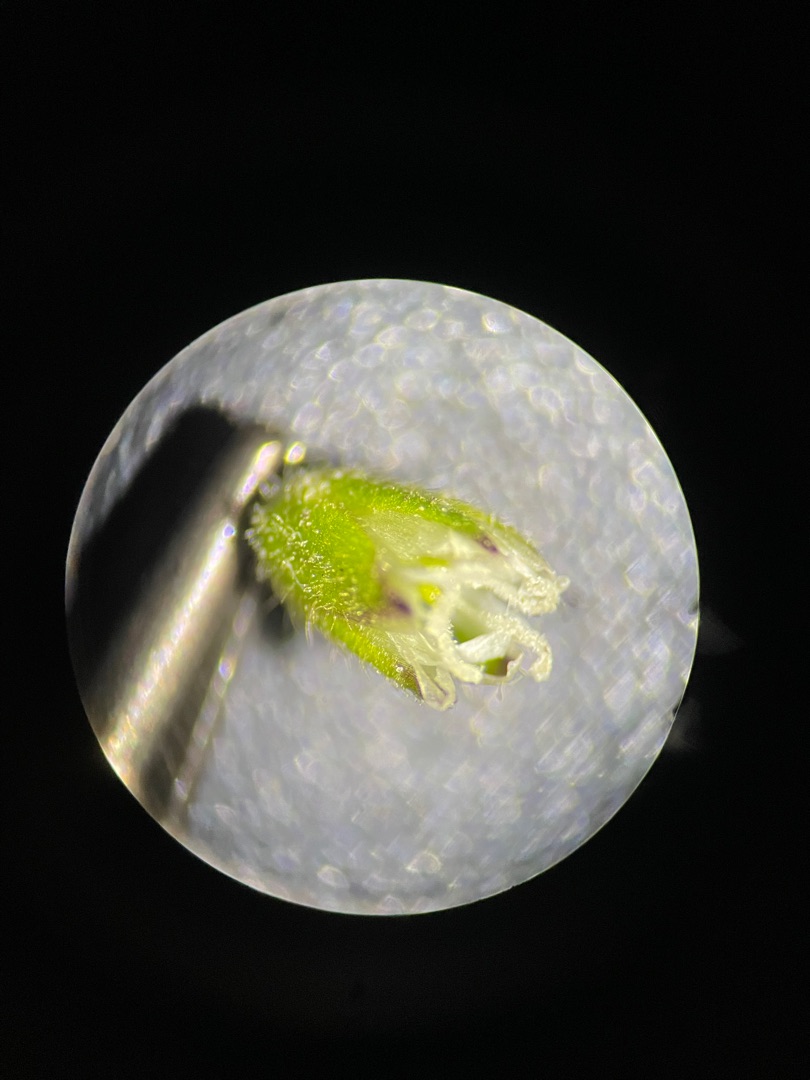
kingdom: Plantae
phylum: Tracheophyta
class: Magnoliopsida
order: Caryophyllales
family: Caryophyllaceae
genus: Cerastium
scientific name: Cerastium fontanum
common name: Almindelig hønsetarm
